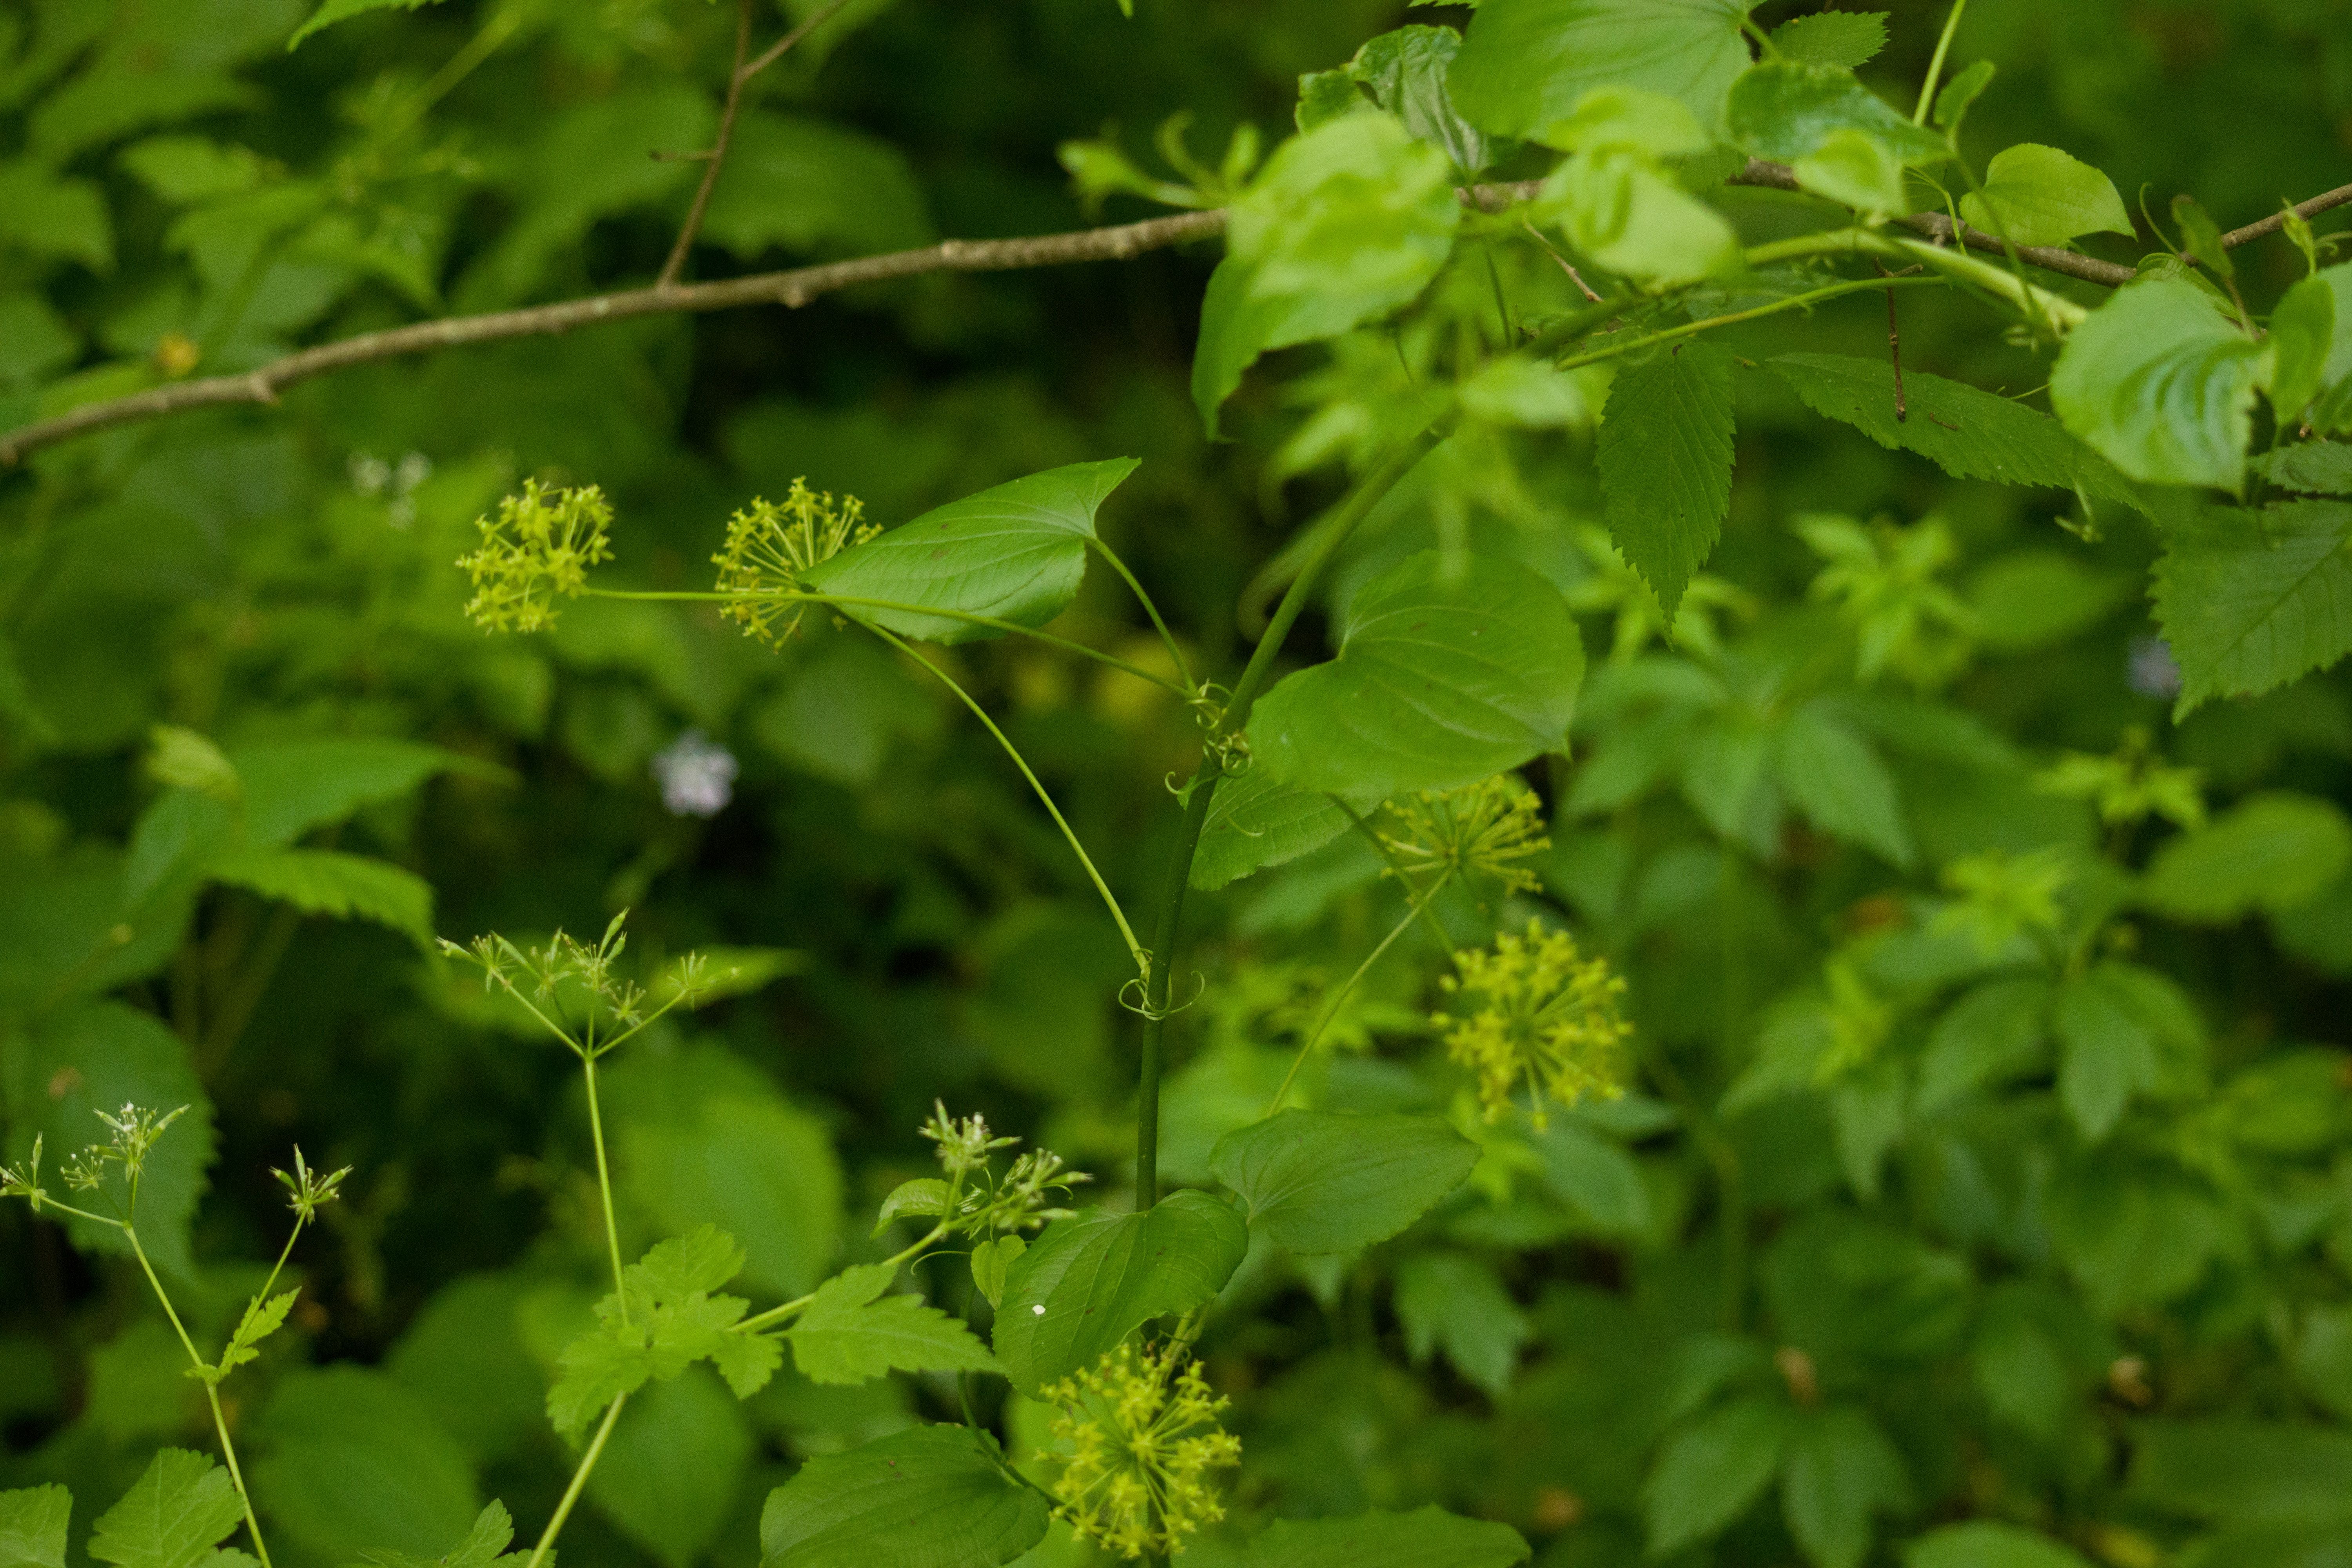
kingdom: Plantae
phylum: Tracheophyta
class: Liliopsida
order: Liliales
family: Smilacaceae
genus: Smilax
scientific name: Smilax herbacea
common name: Jacob's-ladder
